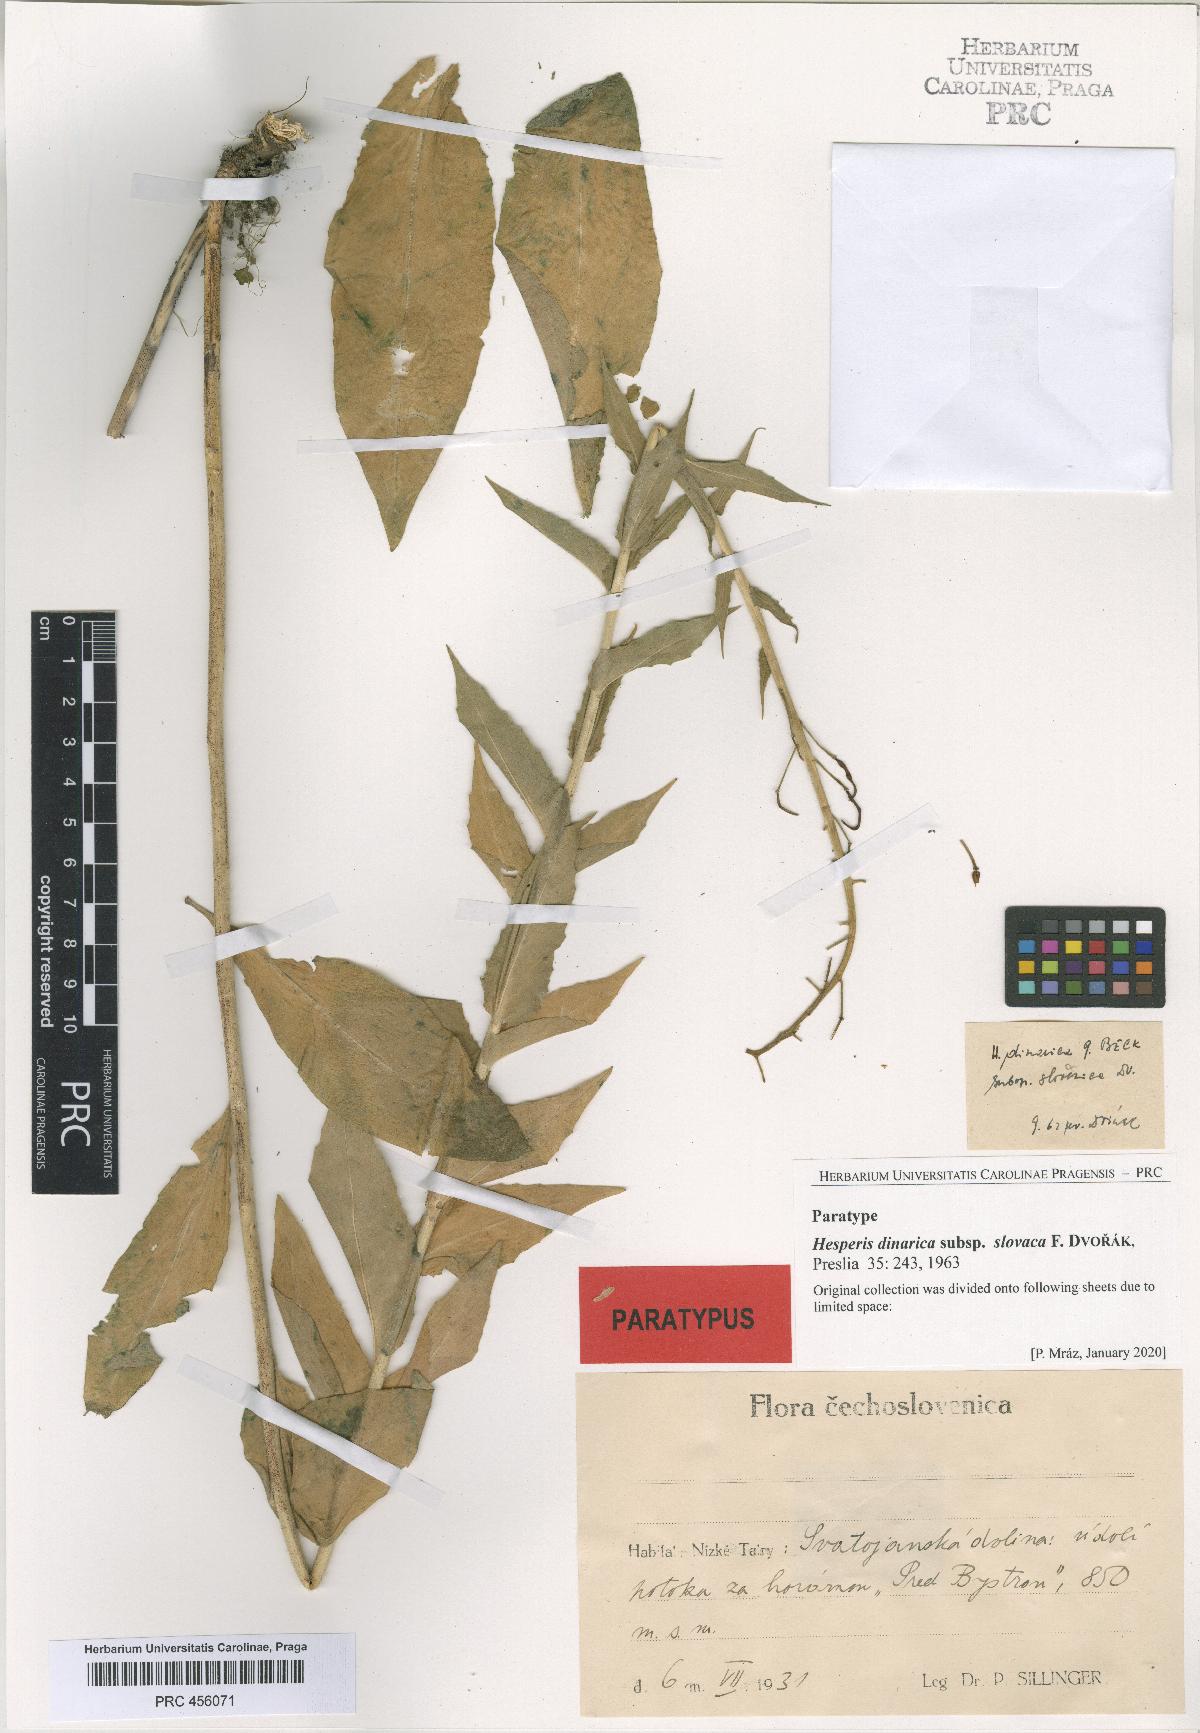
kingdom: Plantae
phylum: Tracheophyta
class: Magnoliopsida
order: Brassicales
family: Brassicaceae
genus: Hesperis
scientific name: Hesperis dinarica
